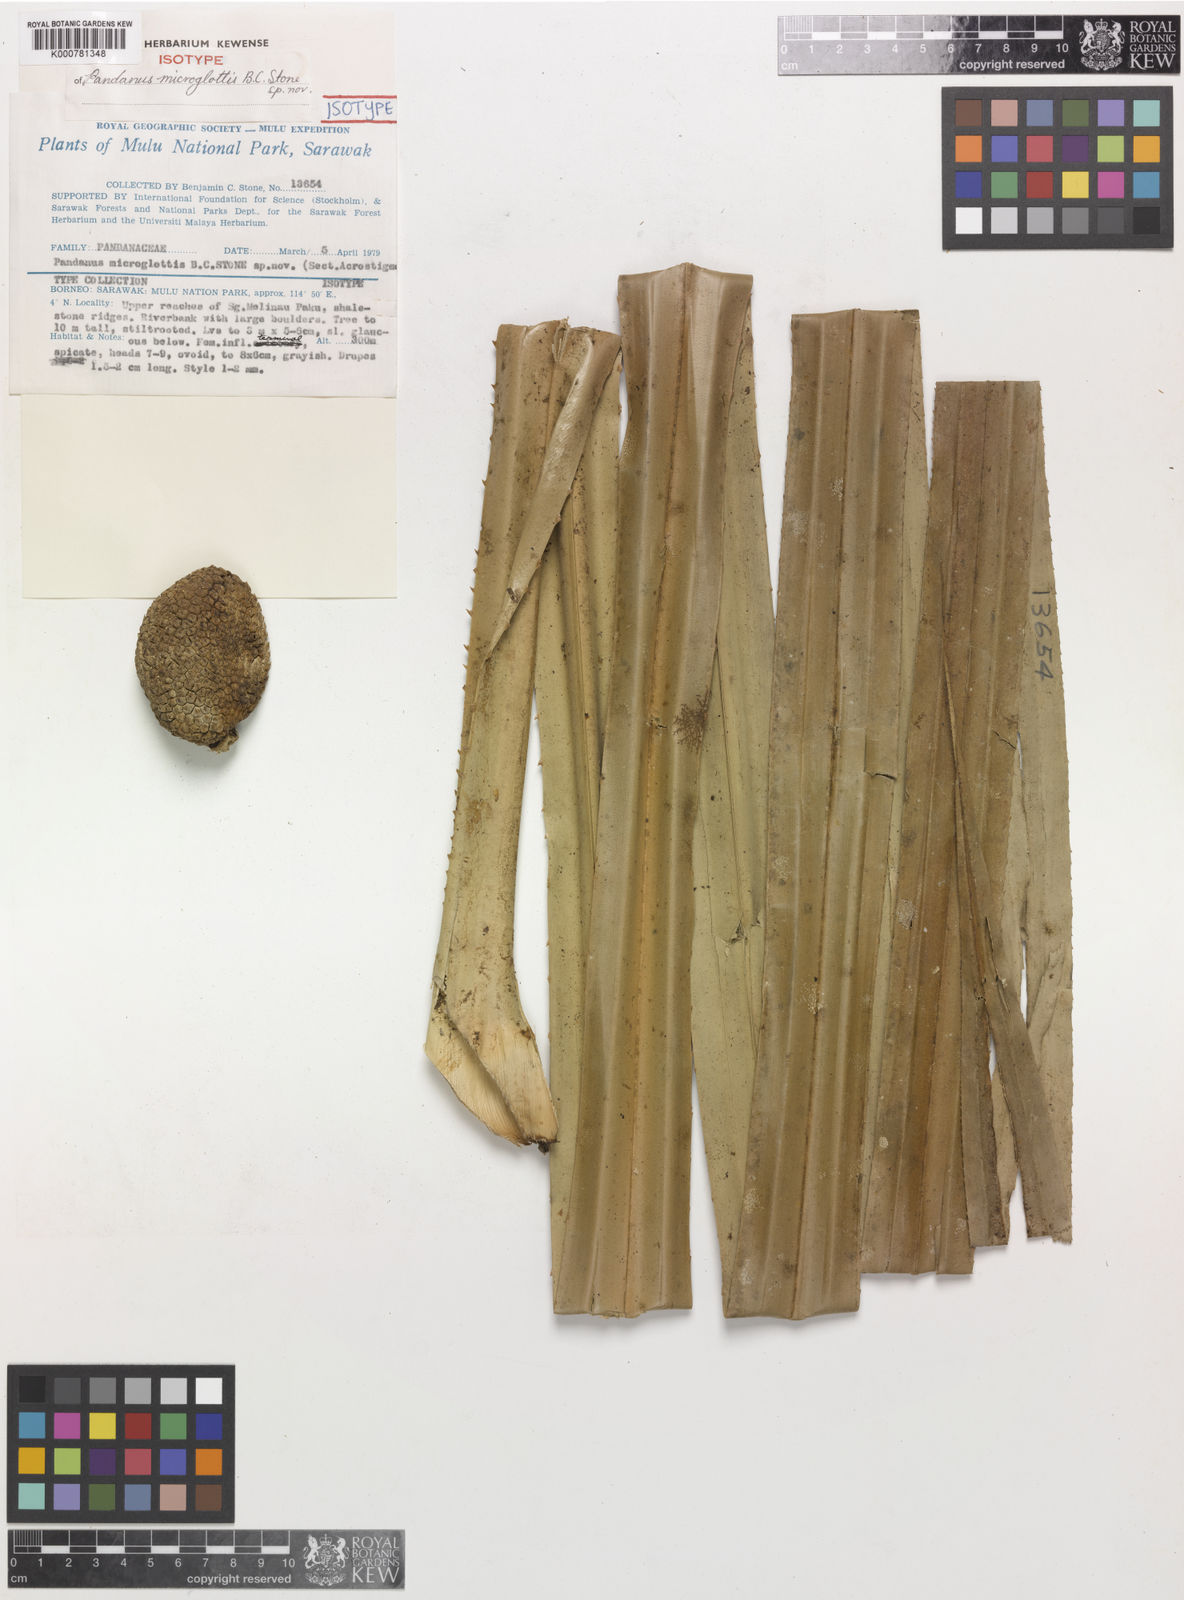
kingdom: Plantae
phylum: Tracheophyta
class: Liliopsida
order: Pandanales
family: Pandanaceae
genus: Benstonea
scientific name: Benstonea microglottis
